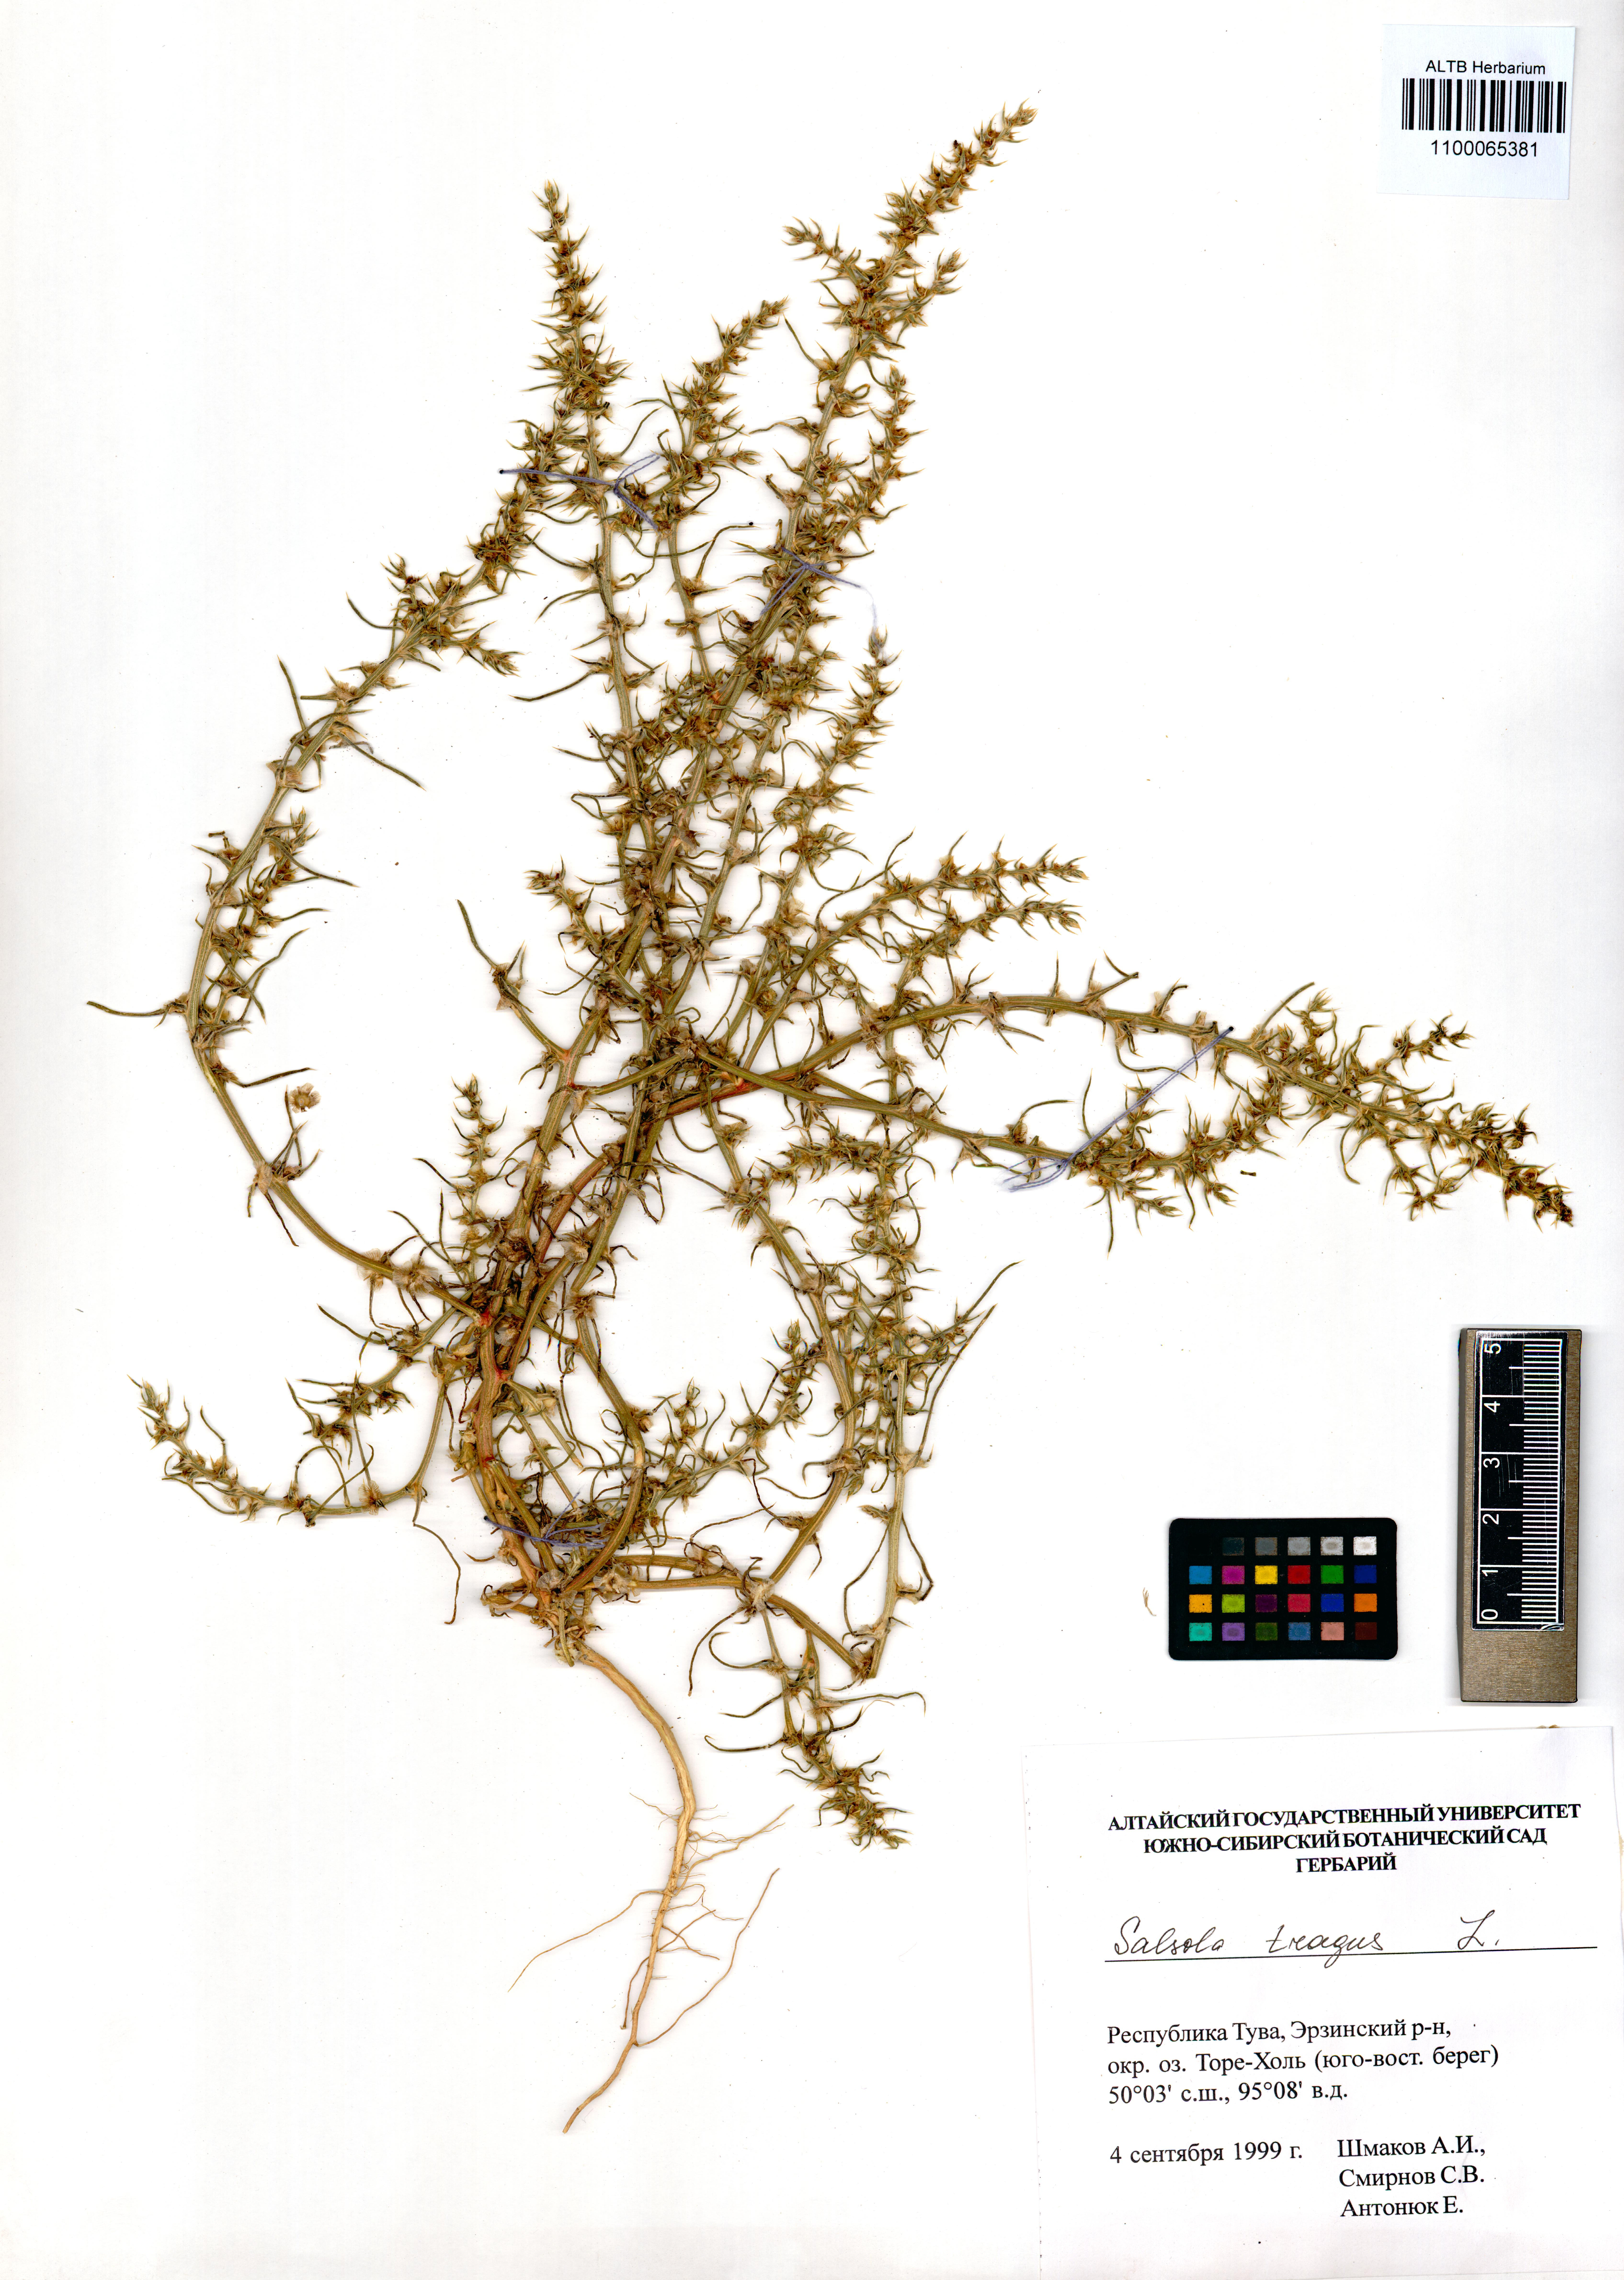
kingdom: Plantae
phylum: Tracheophyta
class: Magnoliopsida
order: Caryophyllales
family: Amaranthaceae
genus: Salsola
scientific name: Salsola tragus
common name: Prickly russian thistle
